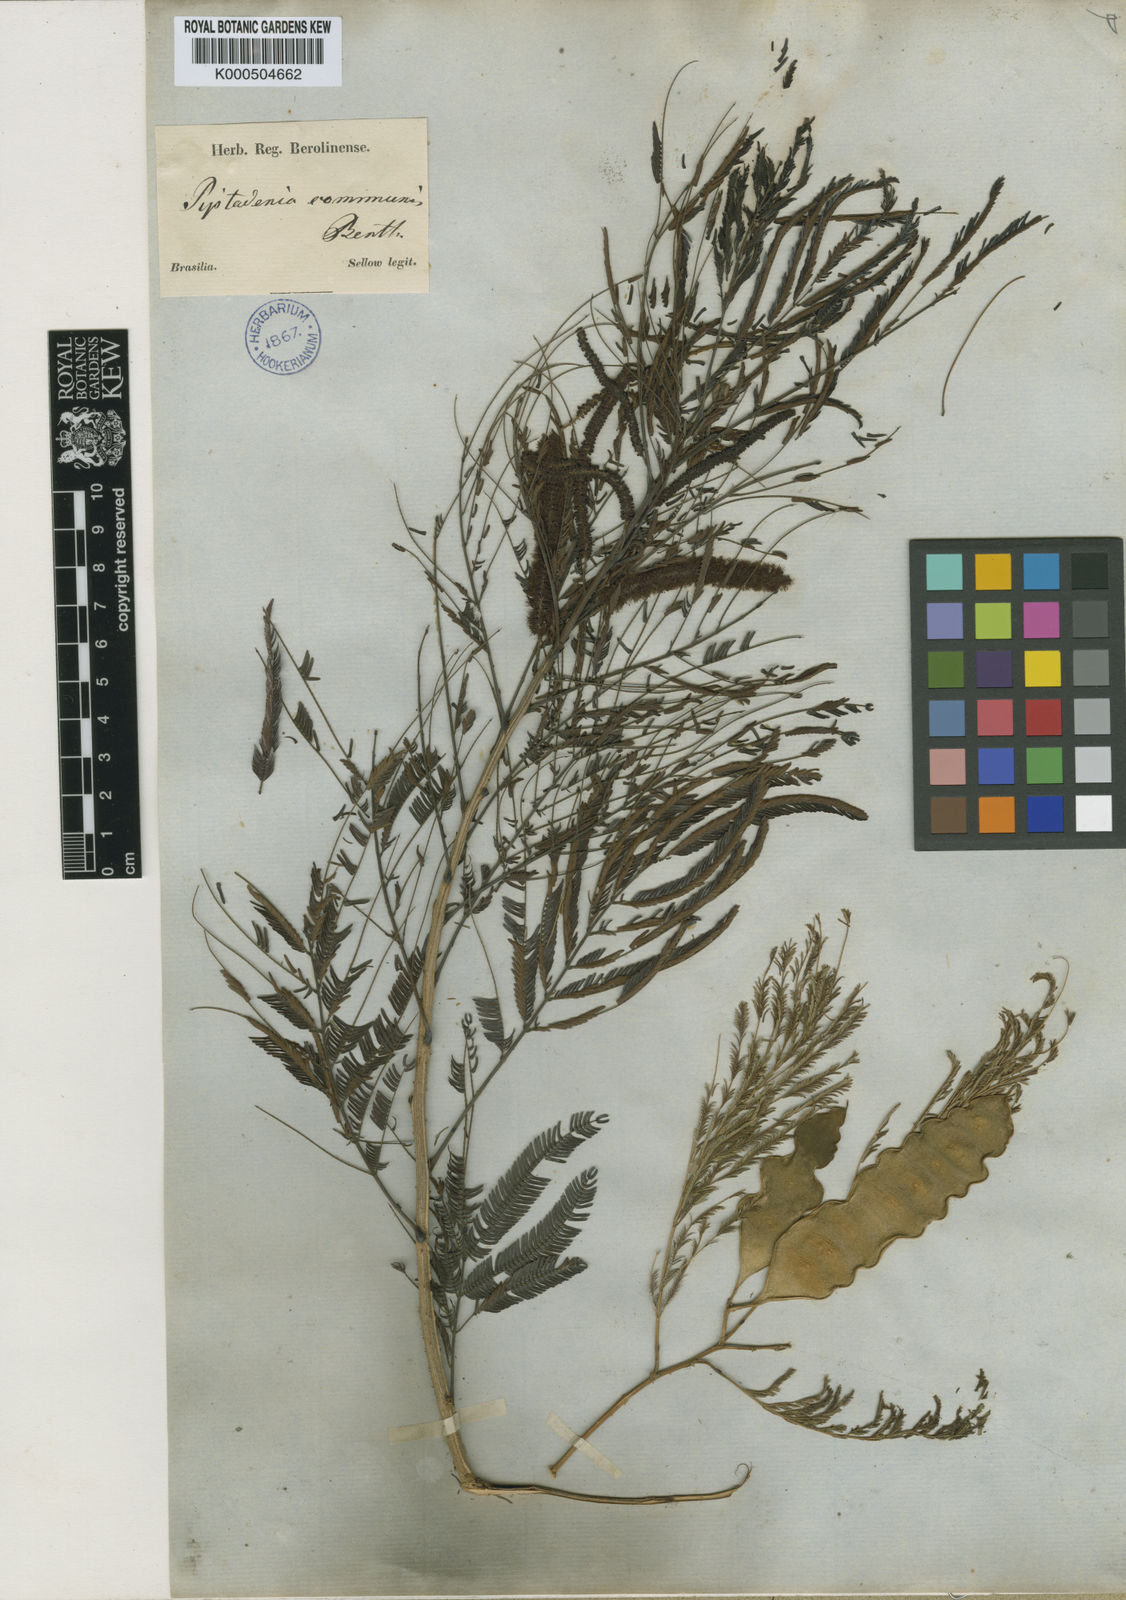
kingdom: Plantae
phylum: Tracheophyta
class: Magnoliopsida
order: Fabales
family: Fabaceae
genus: Piptadenia
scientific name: Piptadenia gonoacantha
